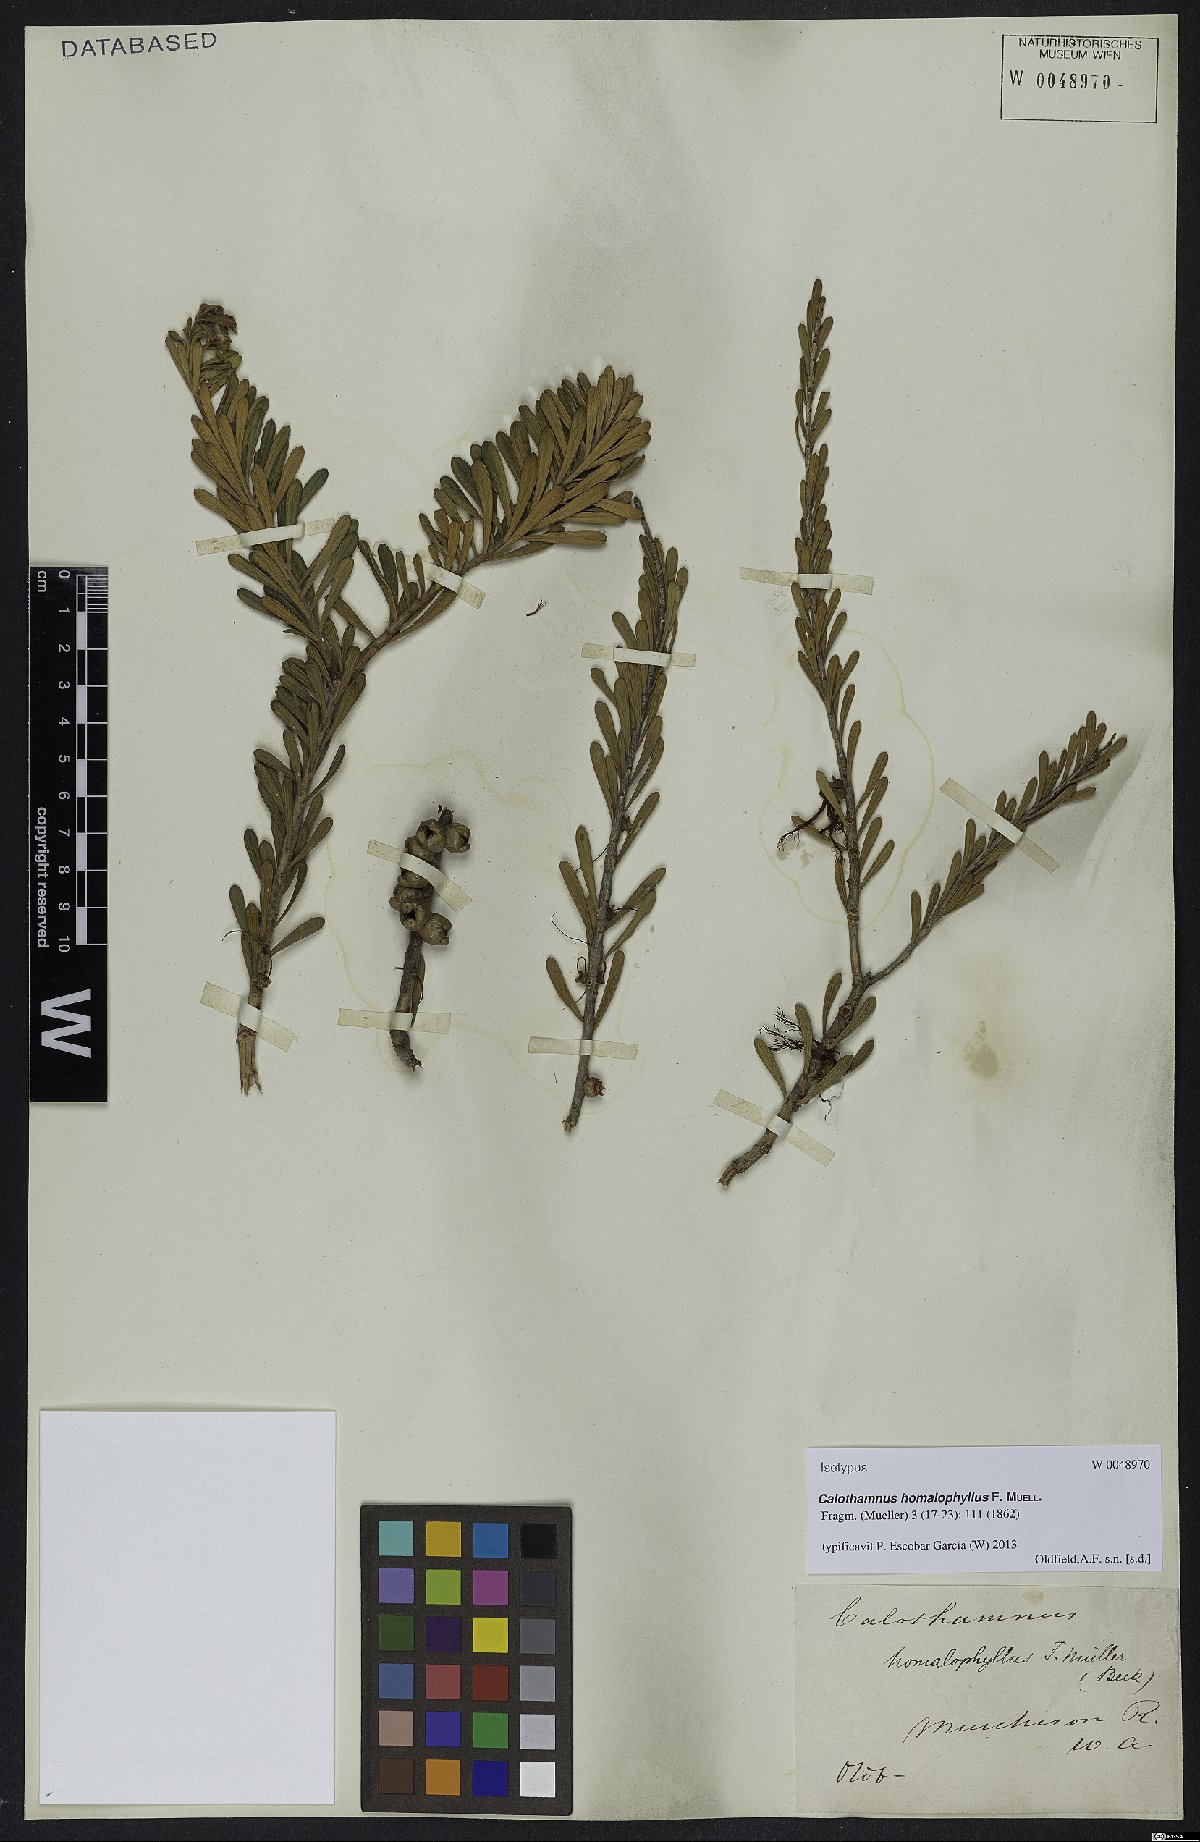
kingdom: Plantae
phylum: Tracheophyta
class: Magnoliopsida
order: Myrtales
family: Myrtaceae
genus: Melaleuca
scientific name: Melaleuca quadrifida
